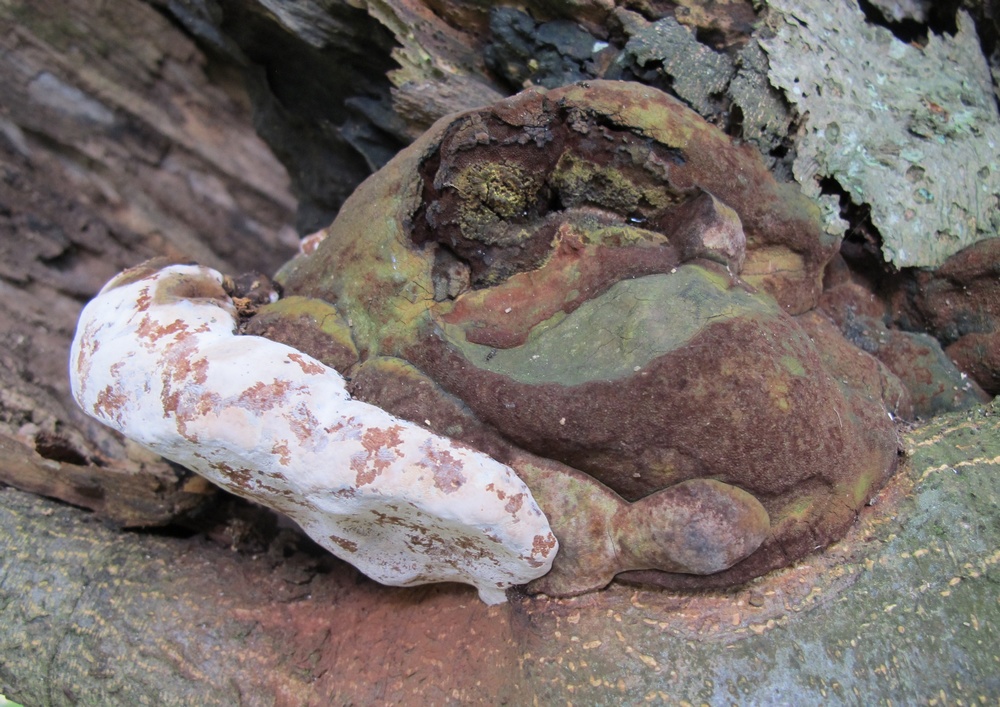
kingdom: Fungi
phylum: Basidiomycota
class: Agaricomycetes
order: Polyporales
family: Polyporaceae
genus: Ganoderma
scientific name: Ganoderma adspersum
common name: grov lakporesvamp
